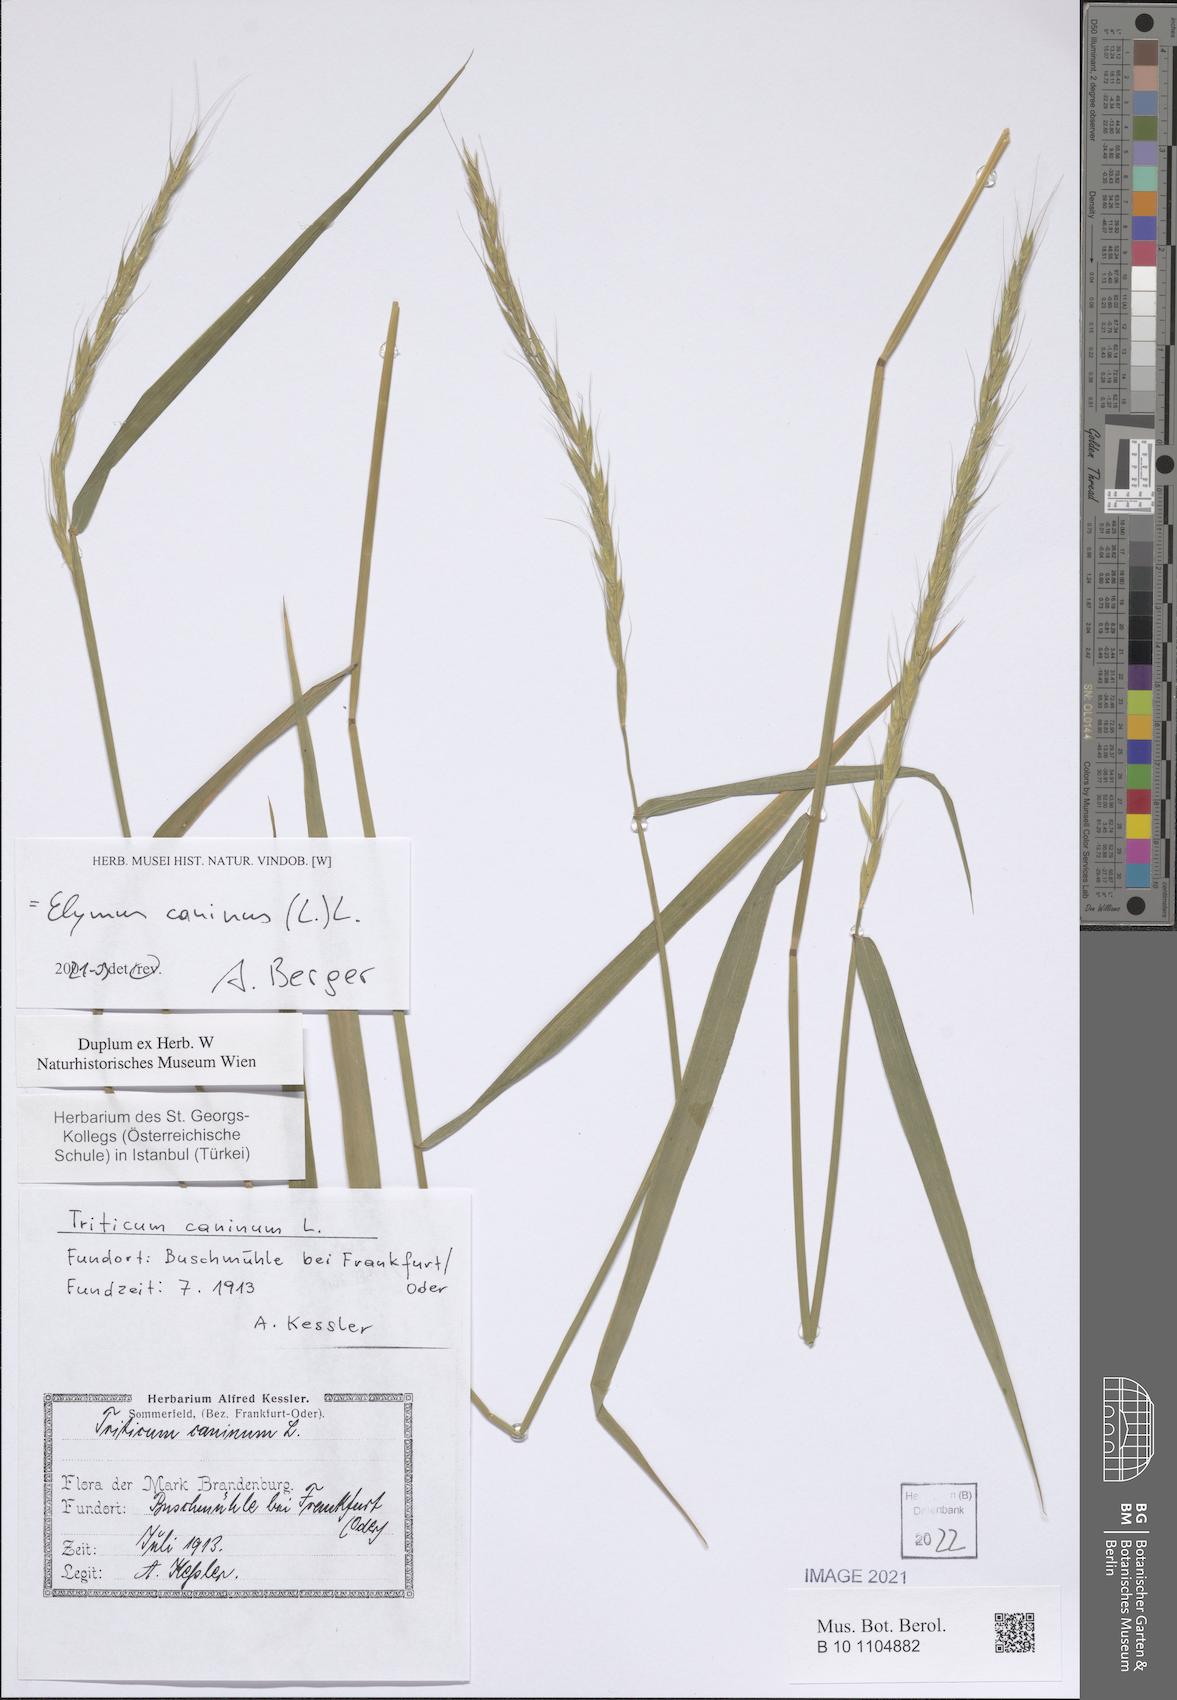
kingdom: Plantae
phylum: Tracheophyta
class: Liliopsida
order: Poales
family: Poaceae
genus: Elymus
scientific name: Elymus caninus
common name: Bearded couch
